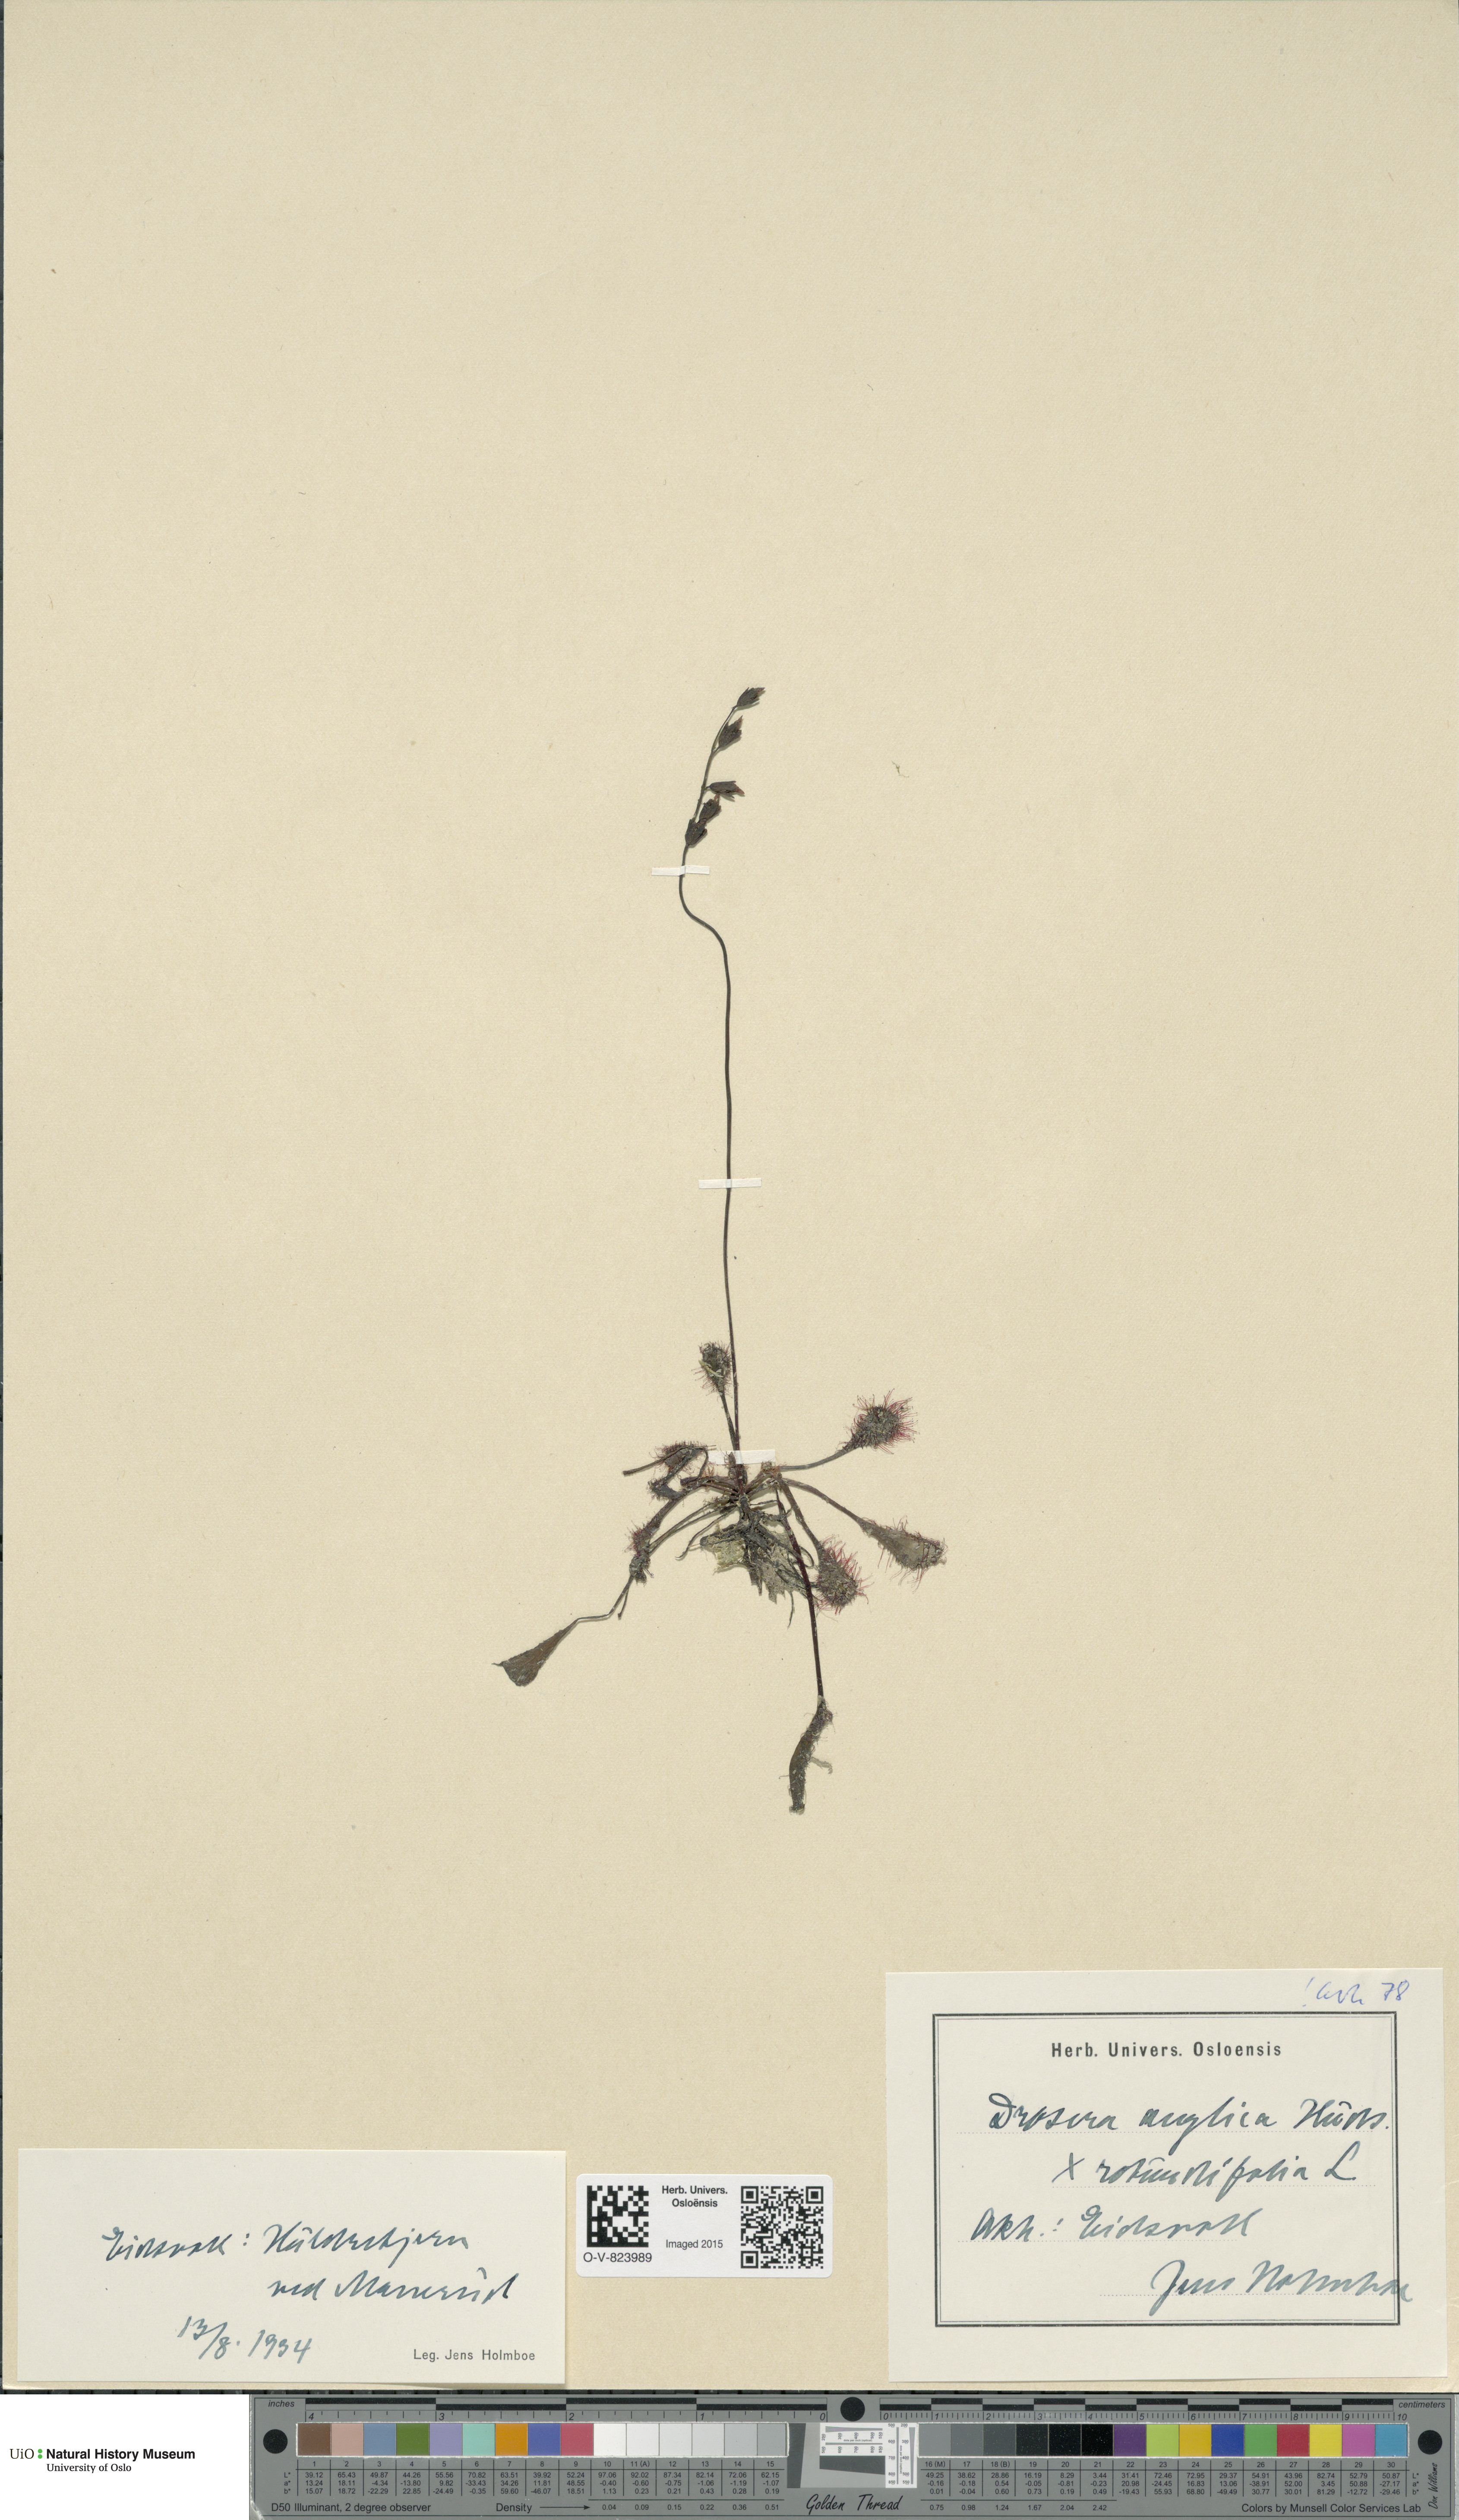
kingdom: Plantae
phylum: Tracheophyta
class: Magnoliopsida
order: Caryophyllales
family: Droseraceae
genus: Drosera
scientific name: Drosera
